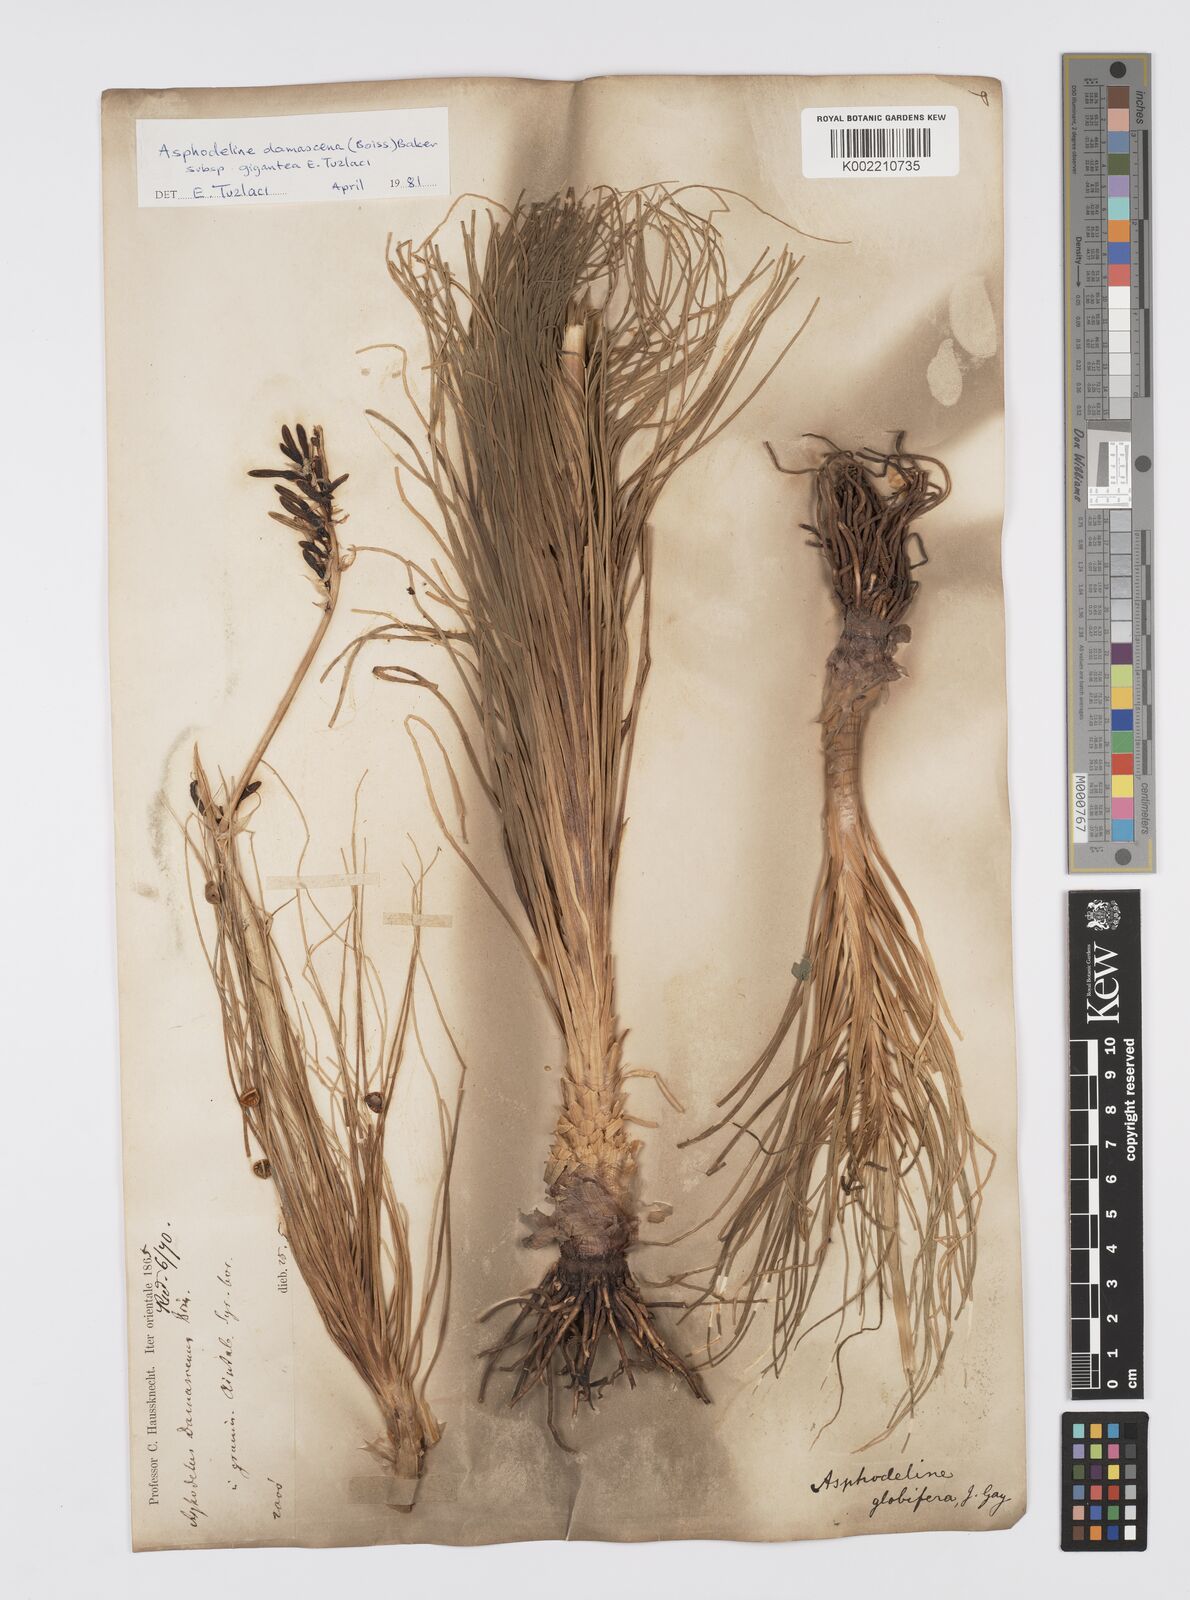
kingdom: Plantae
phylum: Tracheophyta
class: Liliopsida
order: Asparagales
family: Asphodelaceae
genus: Asphodeline
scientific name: Asphodeline damascena
